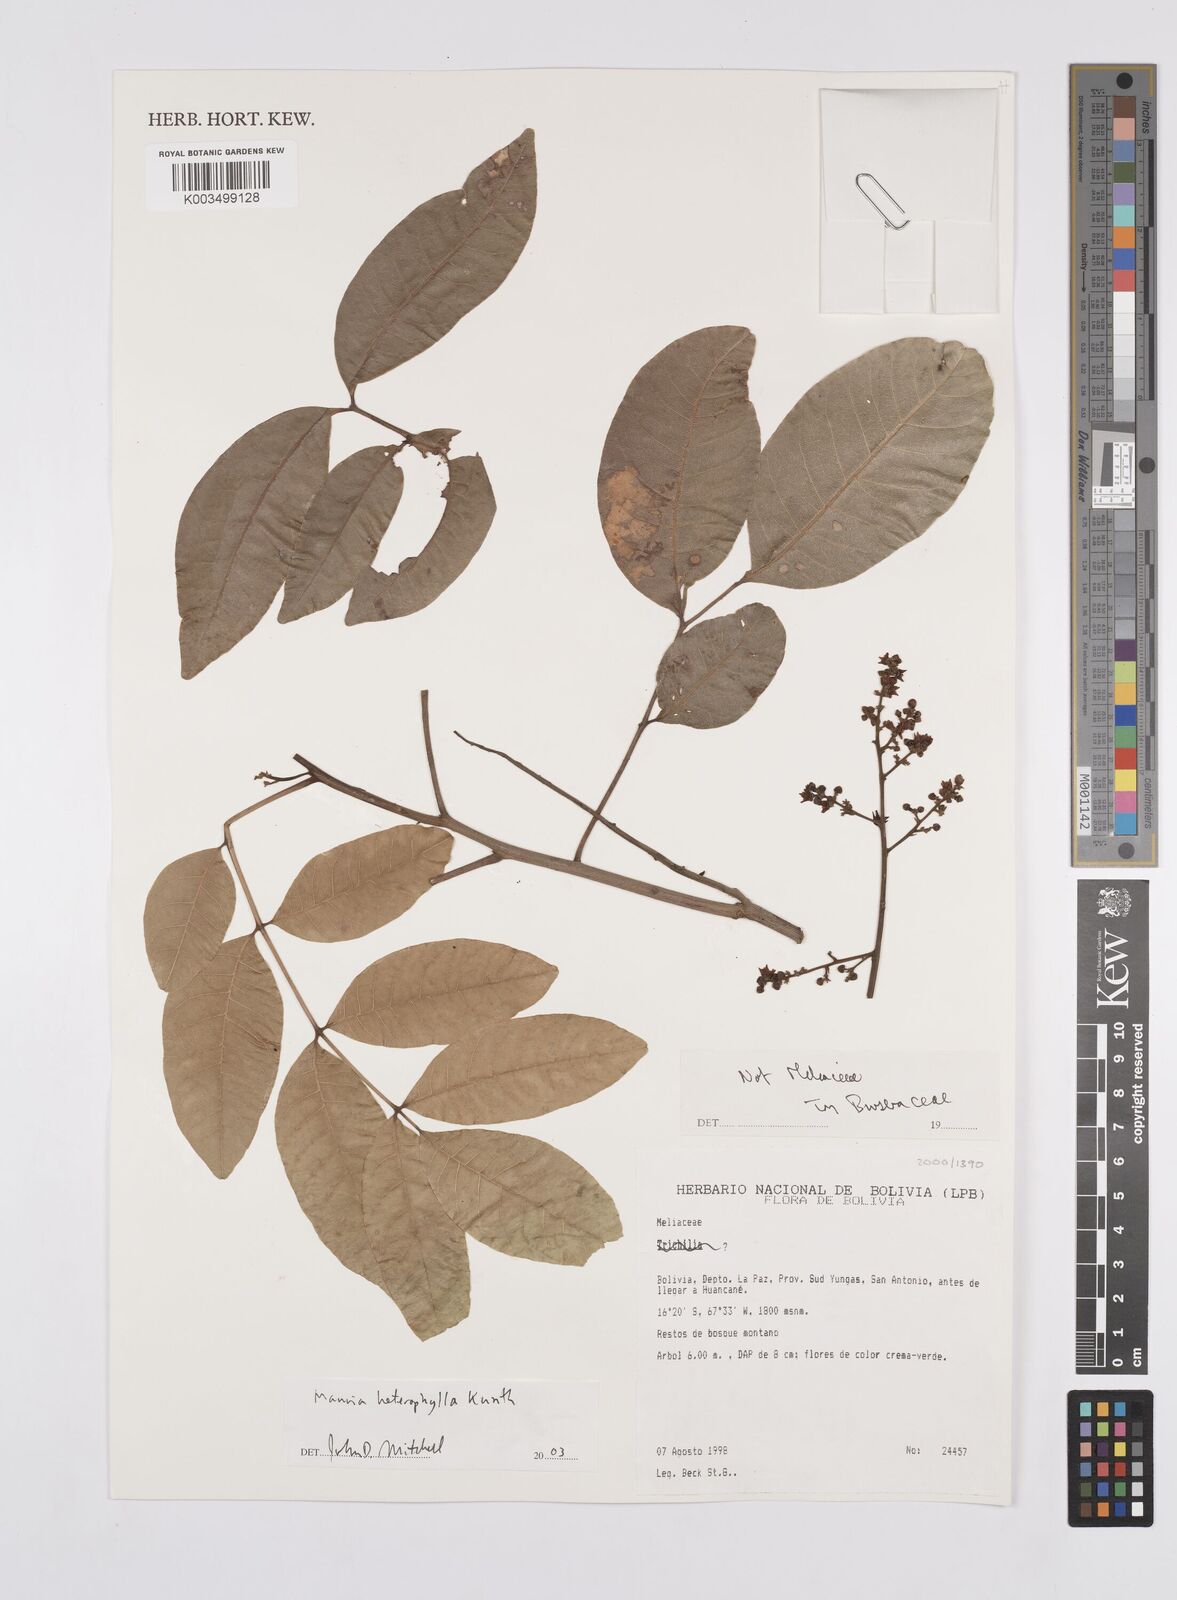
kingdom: Plantae
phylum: Tracheophyta
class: Magnoliopsida
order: Sapindales
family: Anacardiaceae
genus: Mauria
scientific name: Mauria heterophylla
